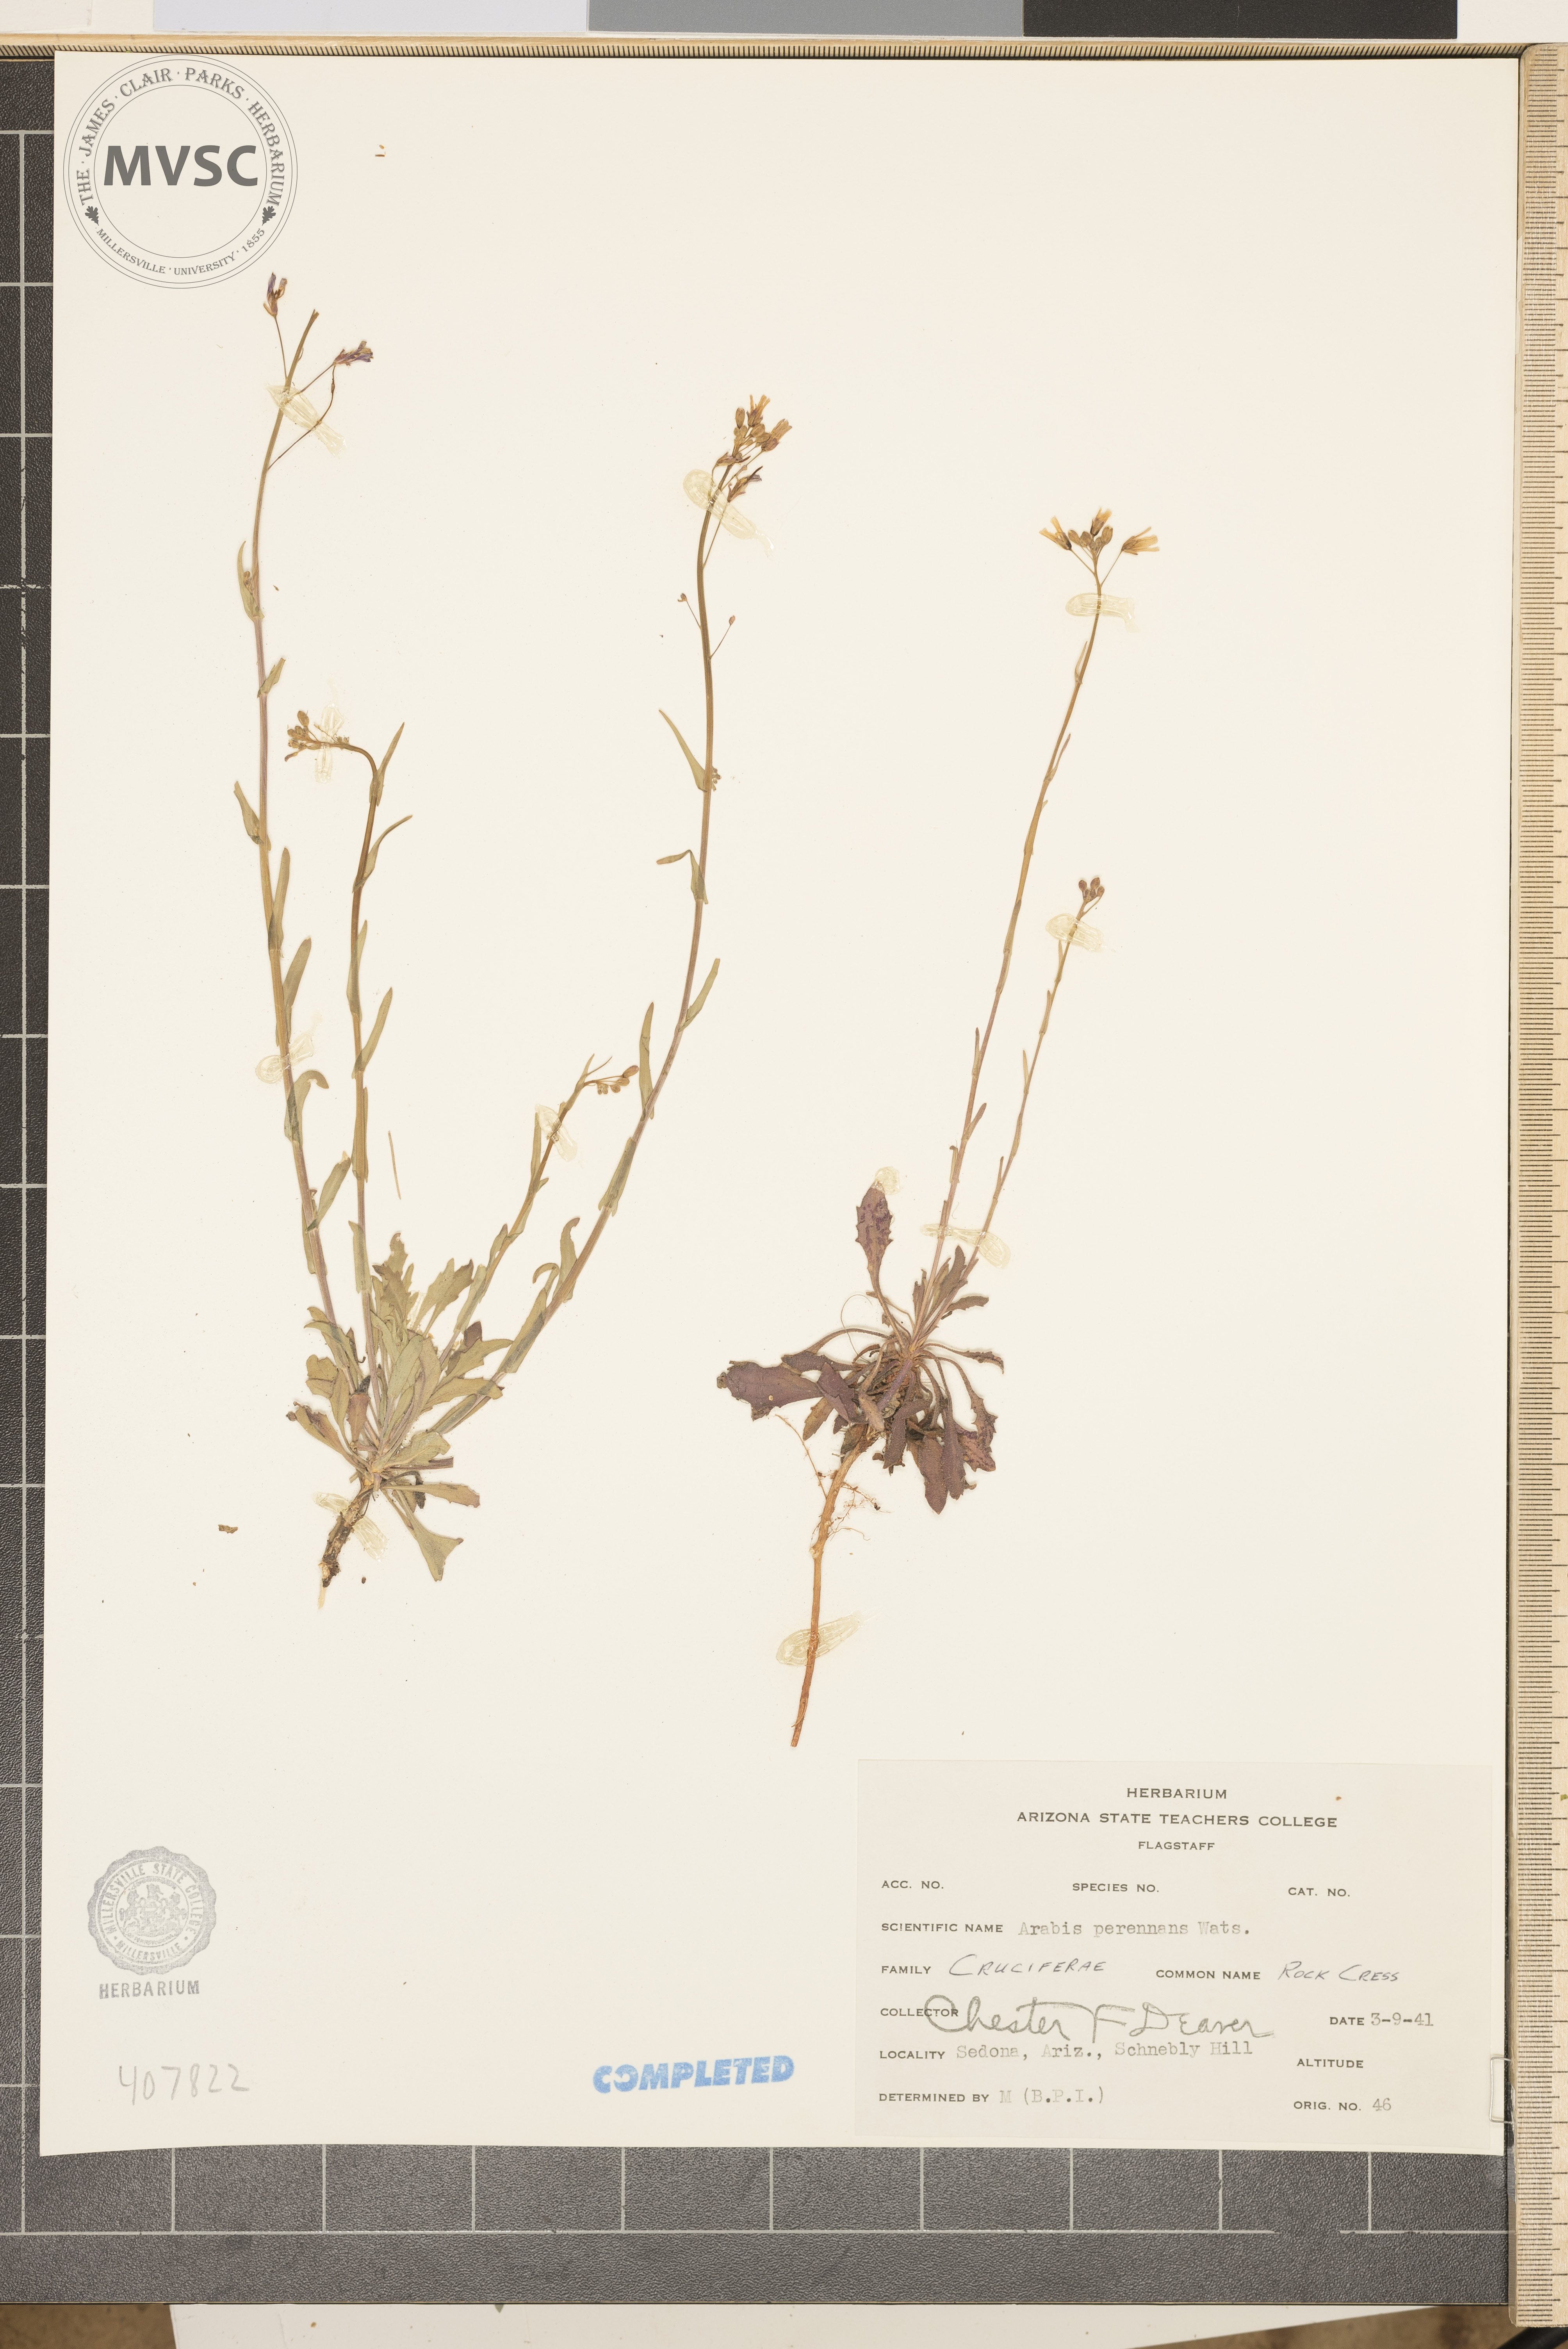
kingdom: Plantae
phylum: Tracheophyta
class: Magnoliopsida
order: Brassicales
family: Brassicaceae
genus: Boechera
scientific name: Boechera perennans
